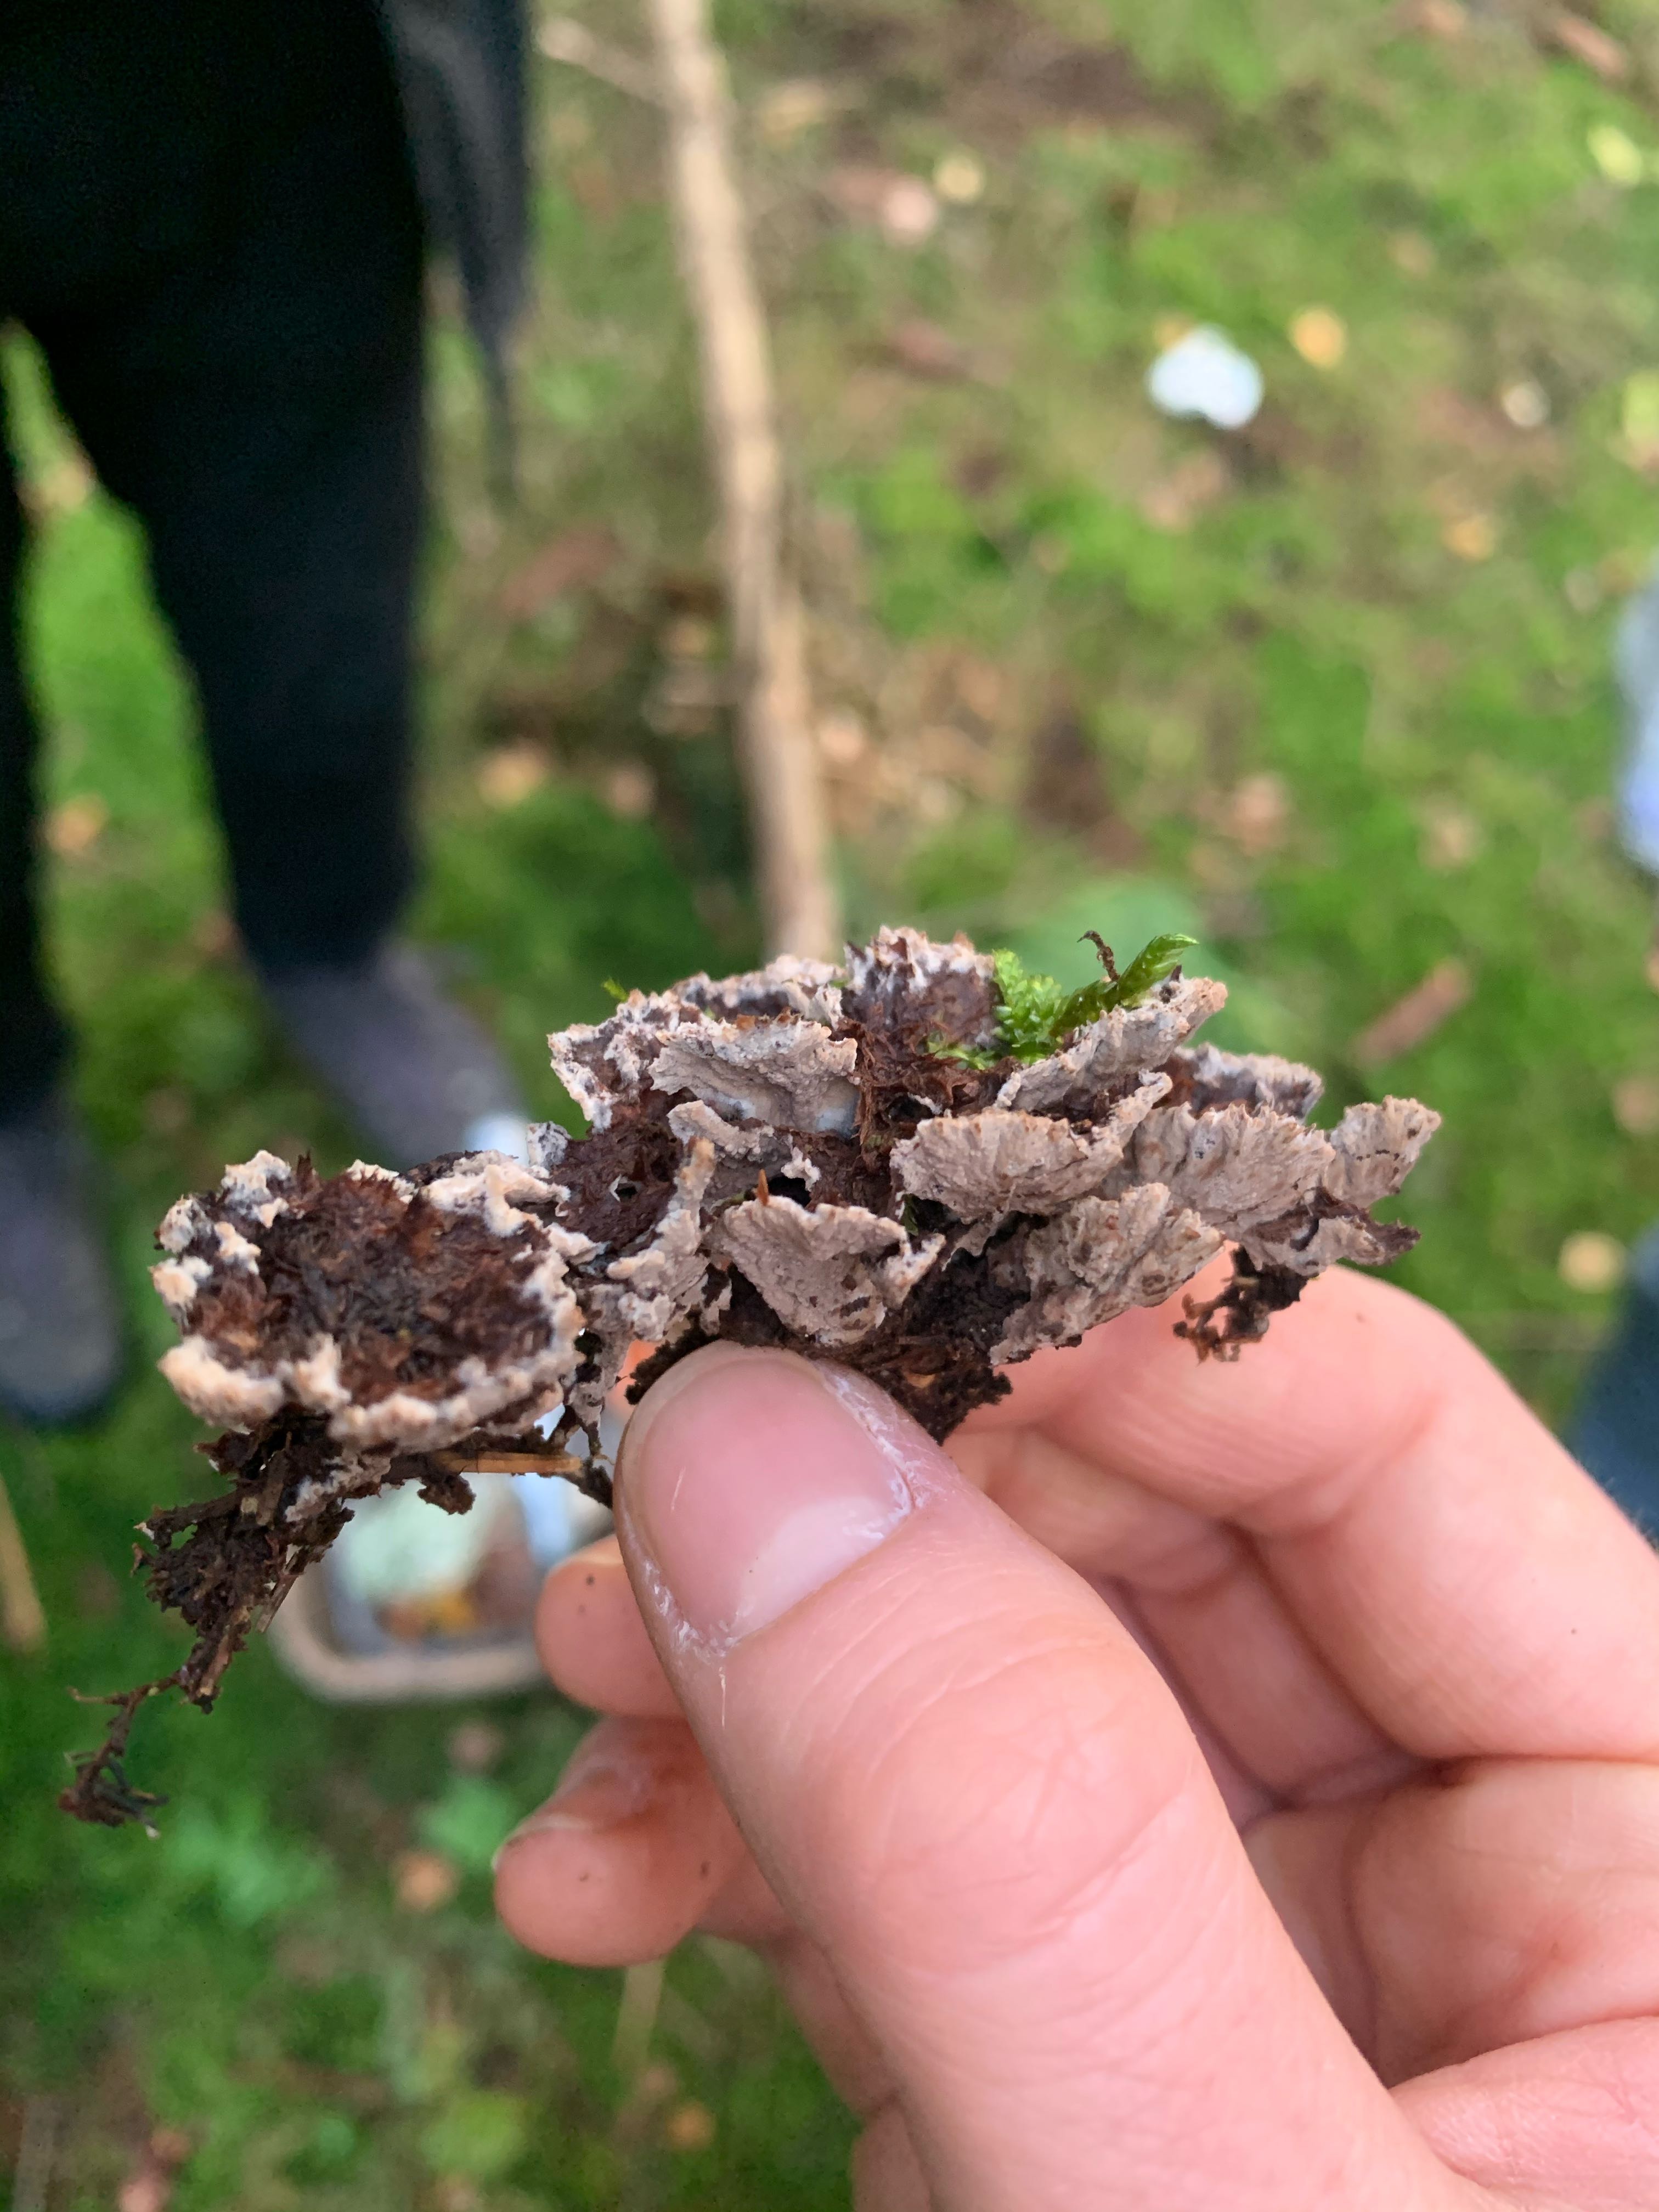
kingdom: Fungi
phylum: Basidiomycota
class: Agaricomycetes
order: Thelephorales
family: Thelephoraceae
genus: Thelephora
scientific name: Thelephora terrestris
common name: fliget frynsesvamp
